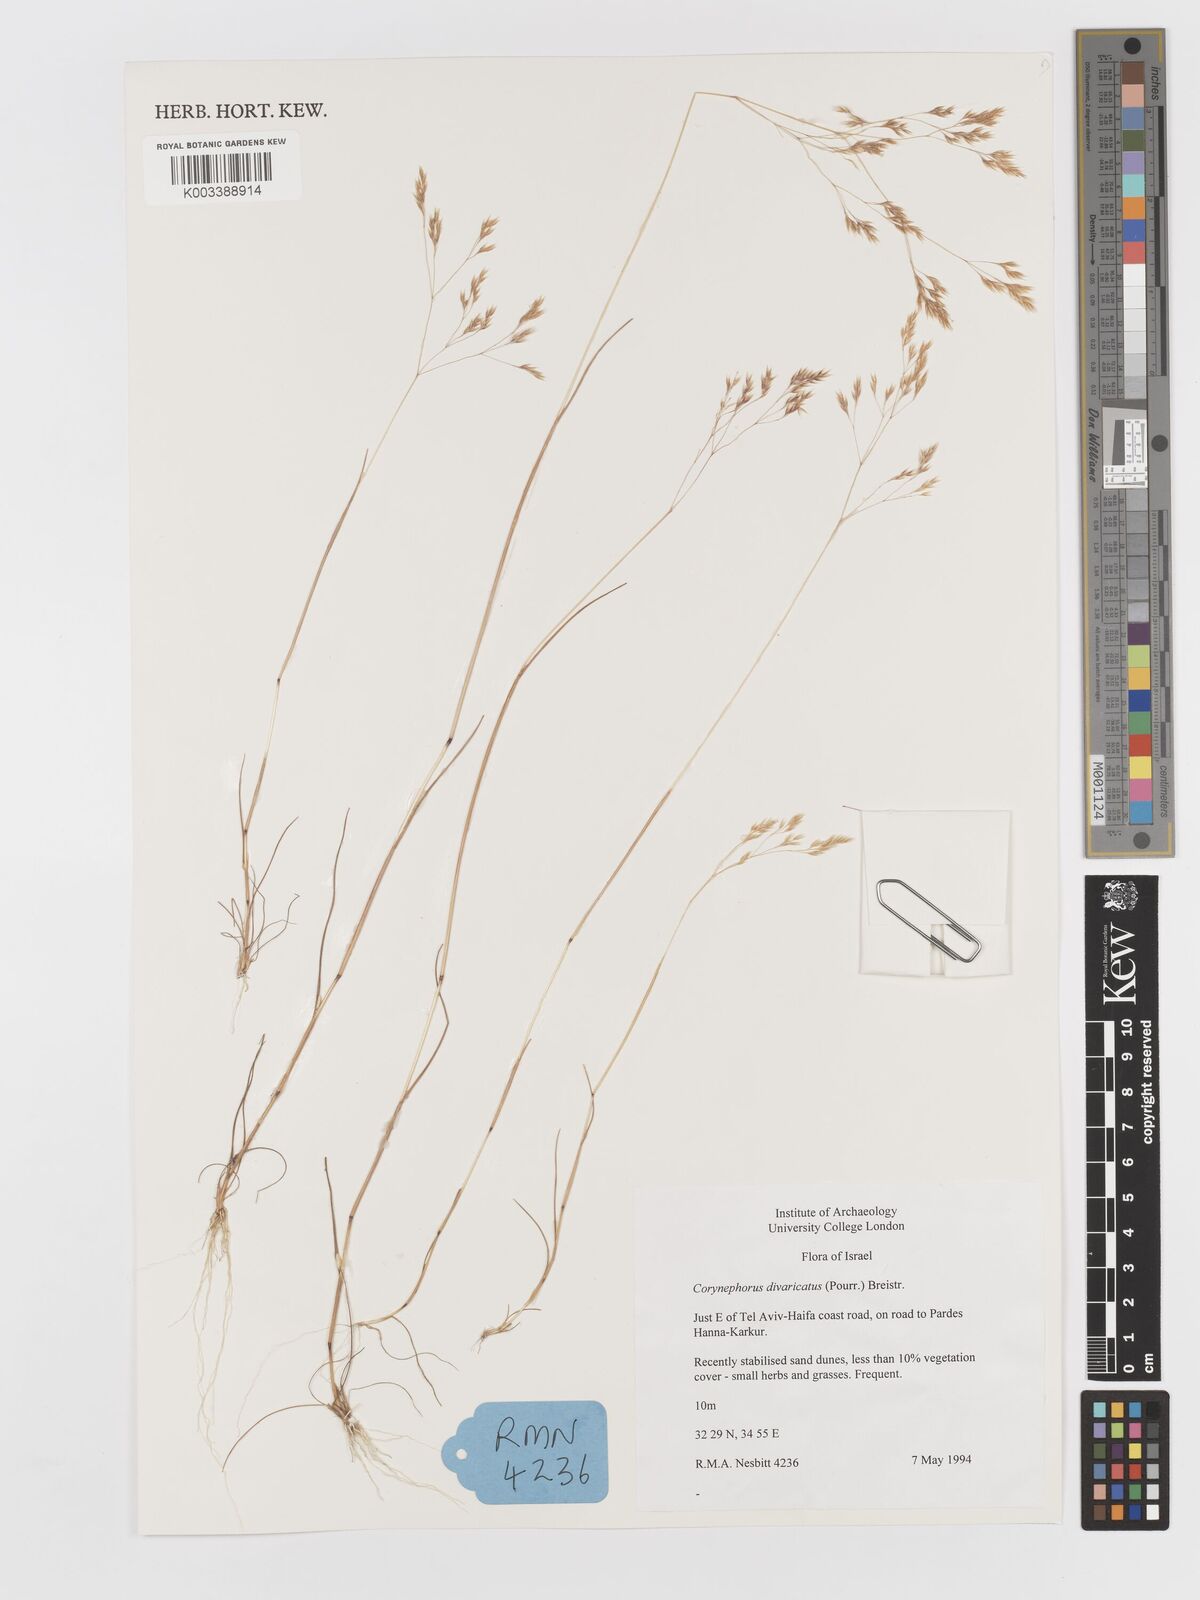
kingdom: Plantae
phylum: Tracheophyta
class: Liliopsida
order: Poales
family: Poaceae
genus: Corynephorus
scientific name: Corynephorus divaricatus
